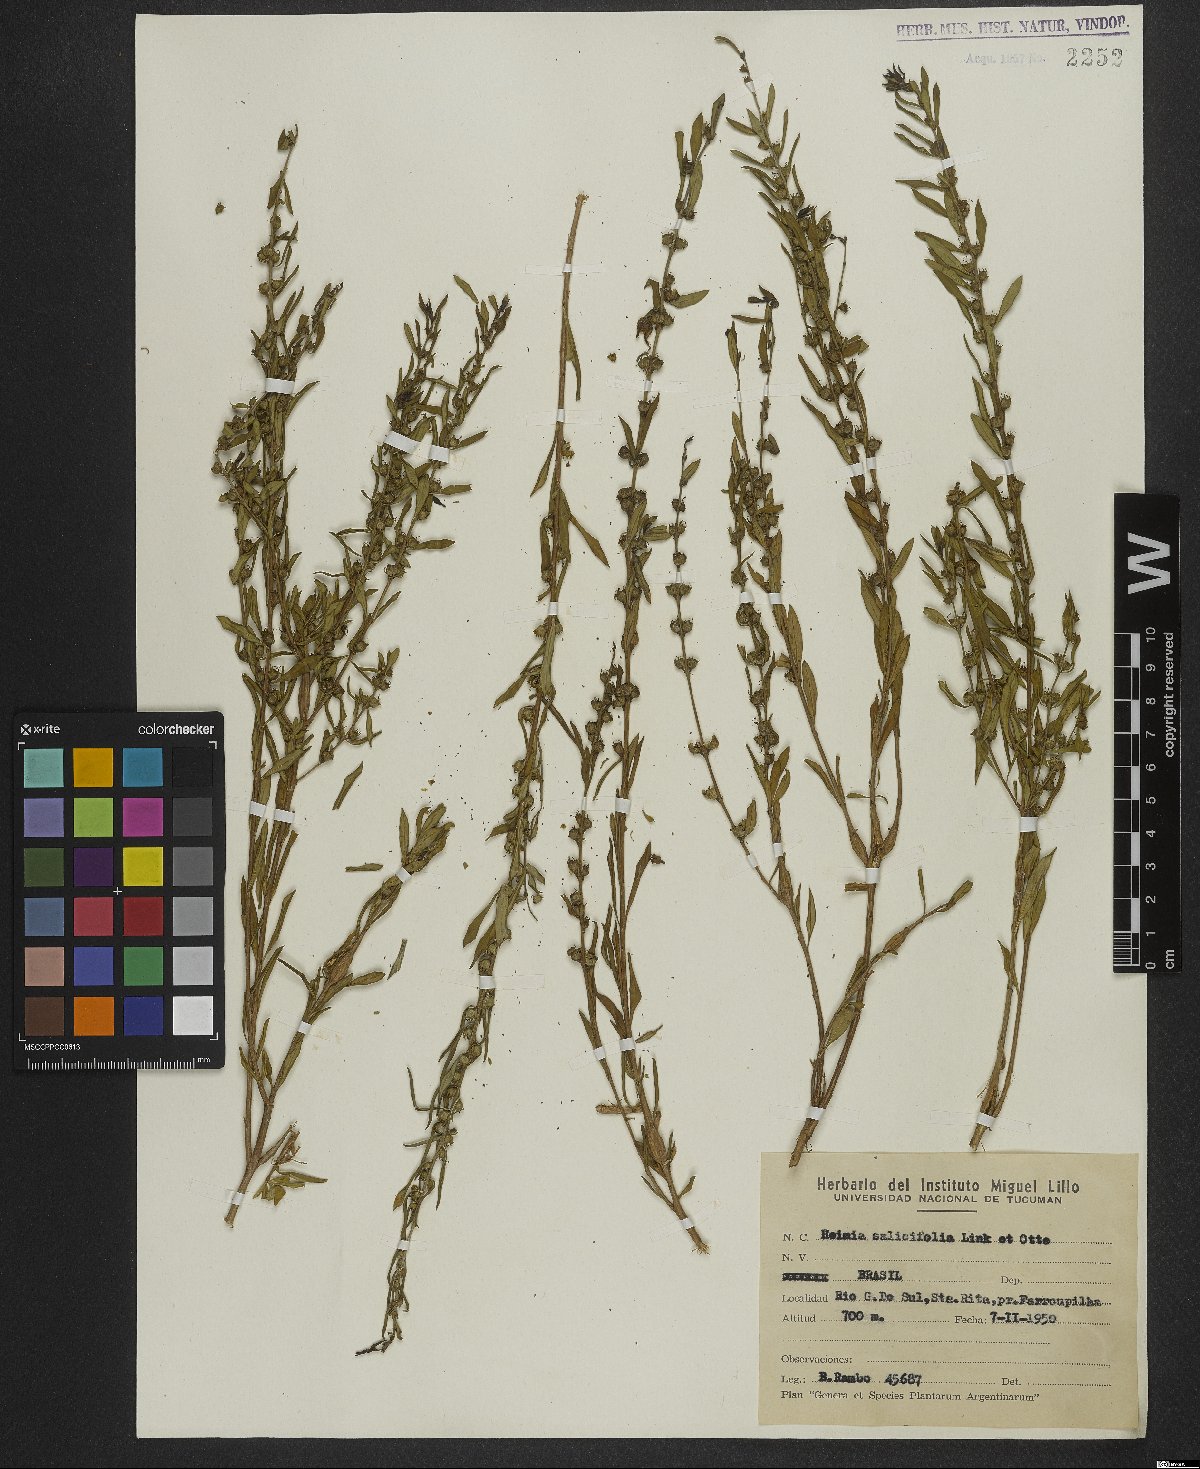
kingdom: Plantae
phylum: Tracheophyta
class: Magnoliopsida
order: Myrtales
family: Lythraceae
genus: Heimia
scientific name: Heimia salicifolia
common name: Willow-leaf heimia
